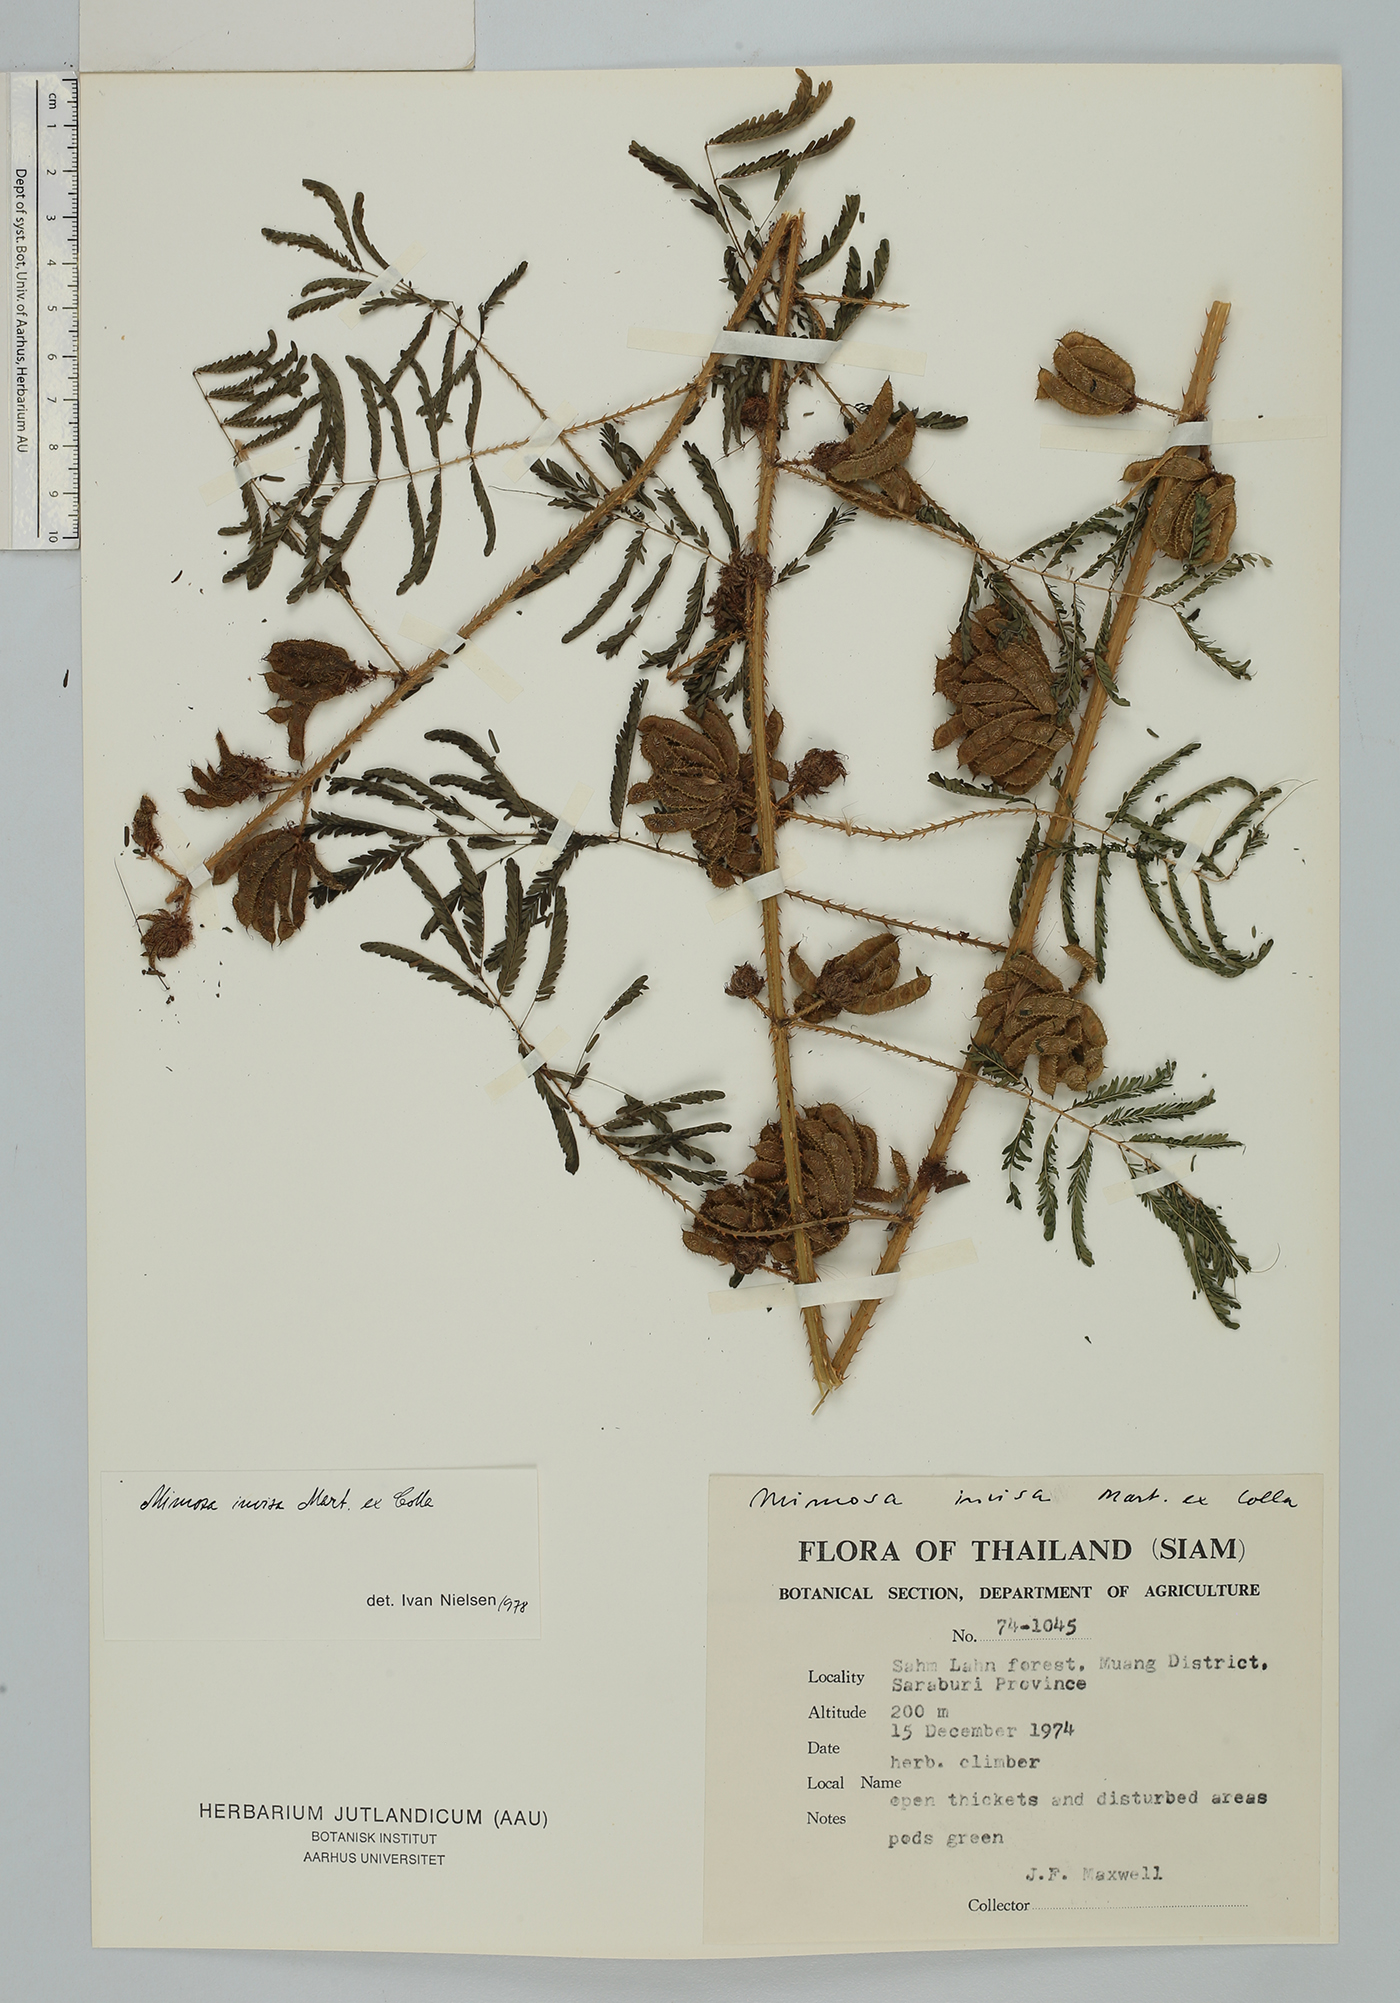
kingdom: Plantae
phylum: Tracheophyta
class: Magnoliopsida
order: Fabales
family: Fabaceae
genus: Mimosa
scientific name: Mimosa diplotricha
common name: Giant sensitive-plant
